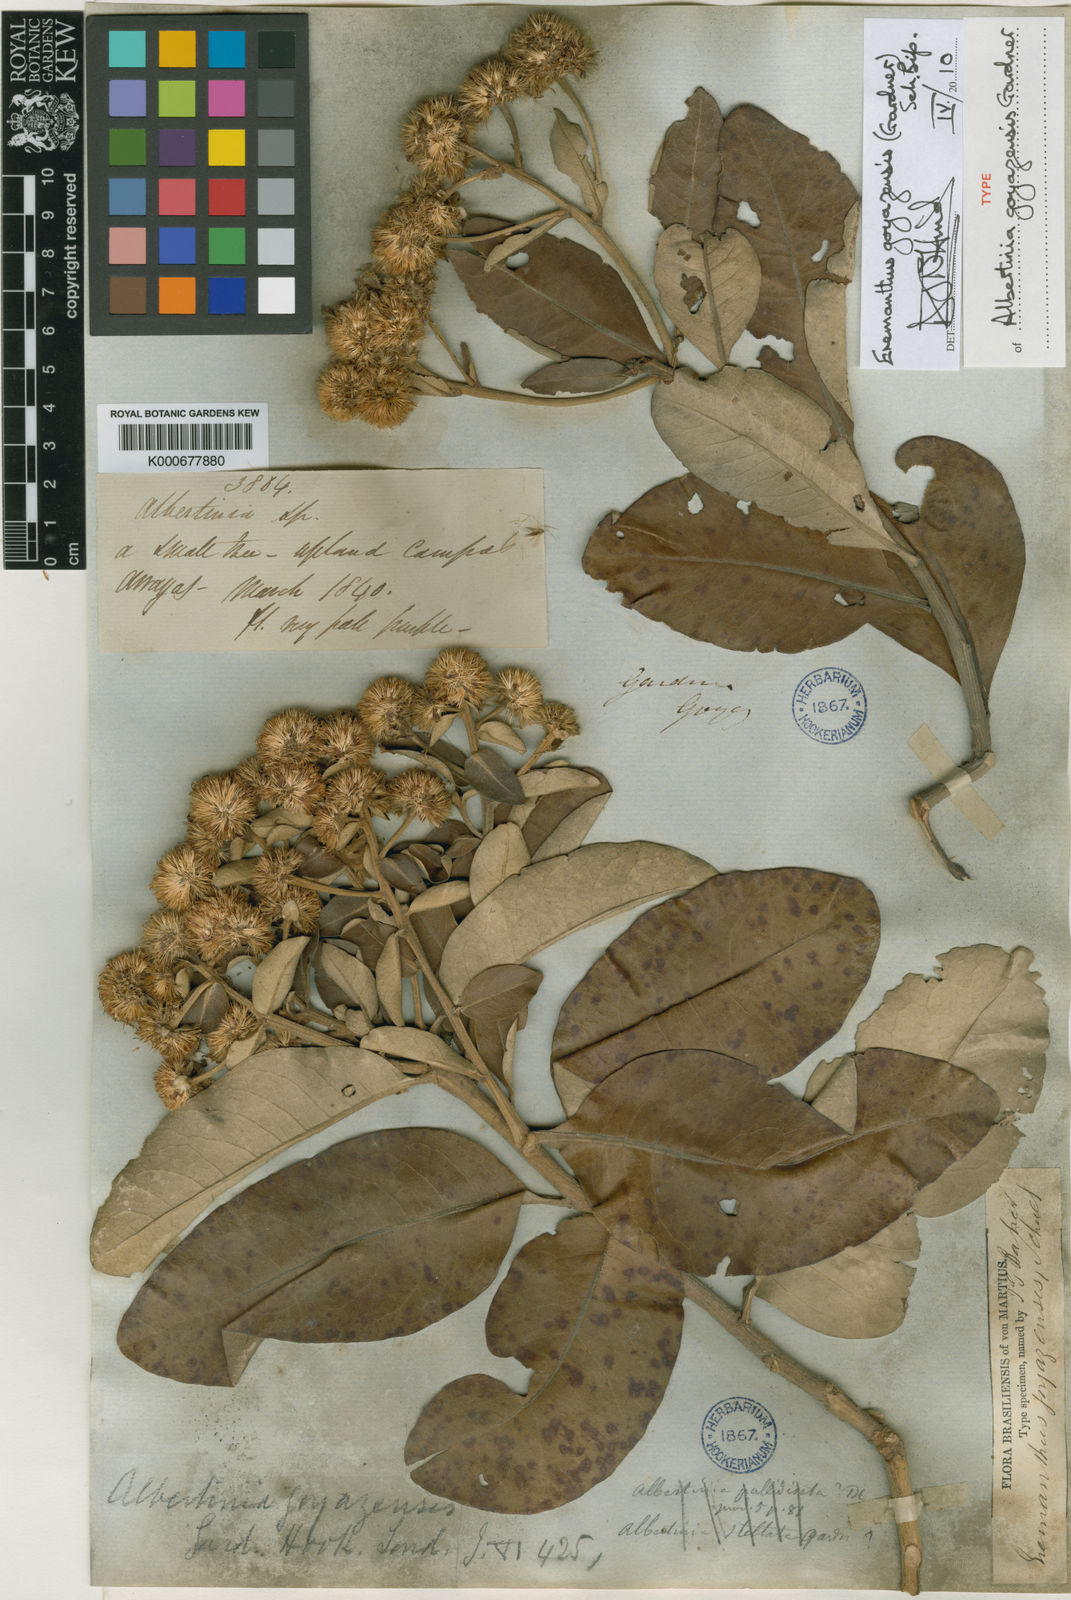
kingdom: Plantae
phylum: Tracheophyta
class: Magnoliopsida
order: Asterales
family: Asteraceae
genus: Eremanthus
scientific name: Eremanthus goyazensis
